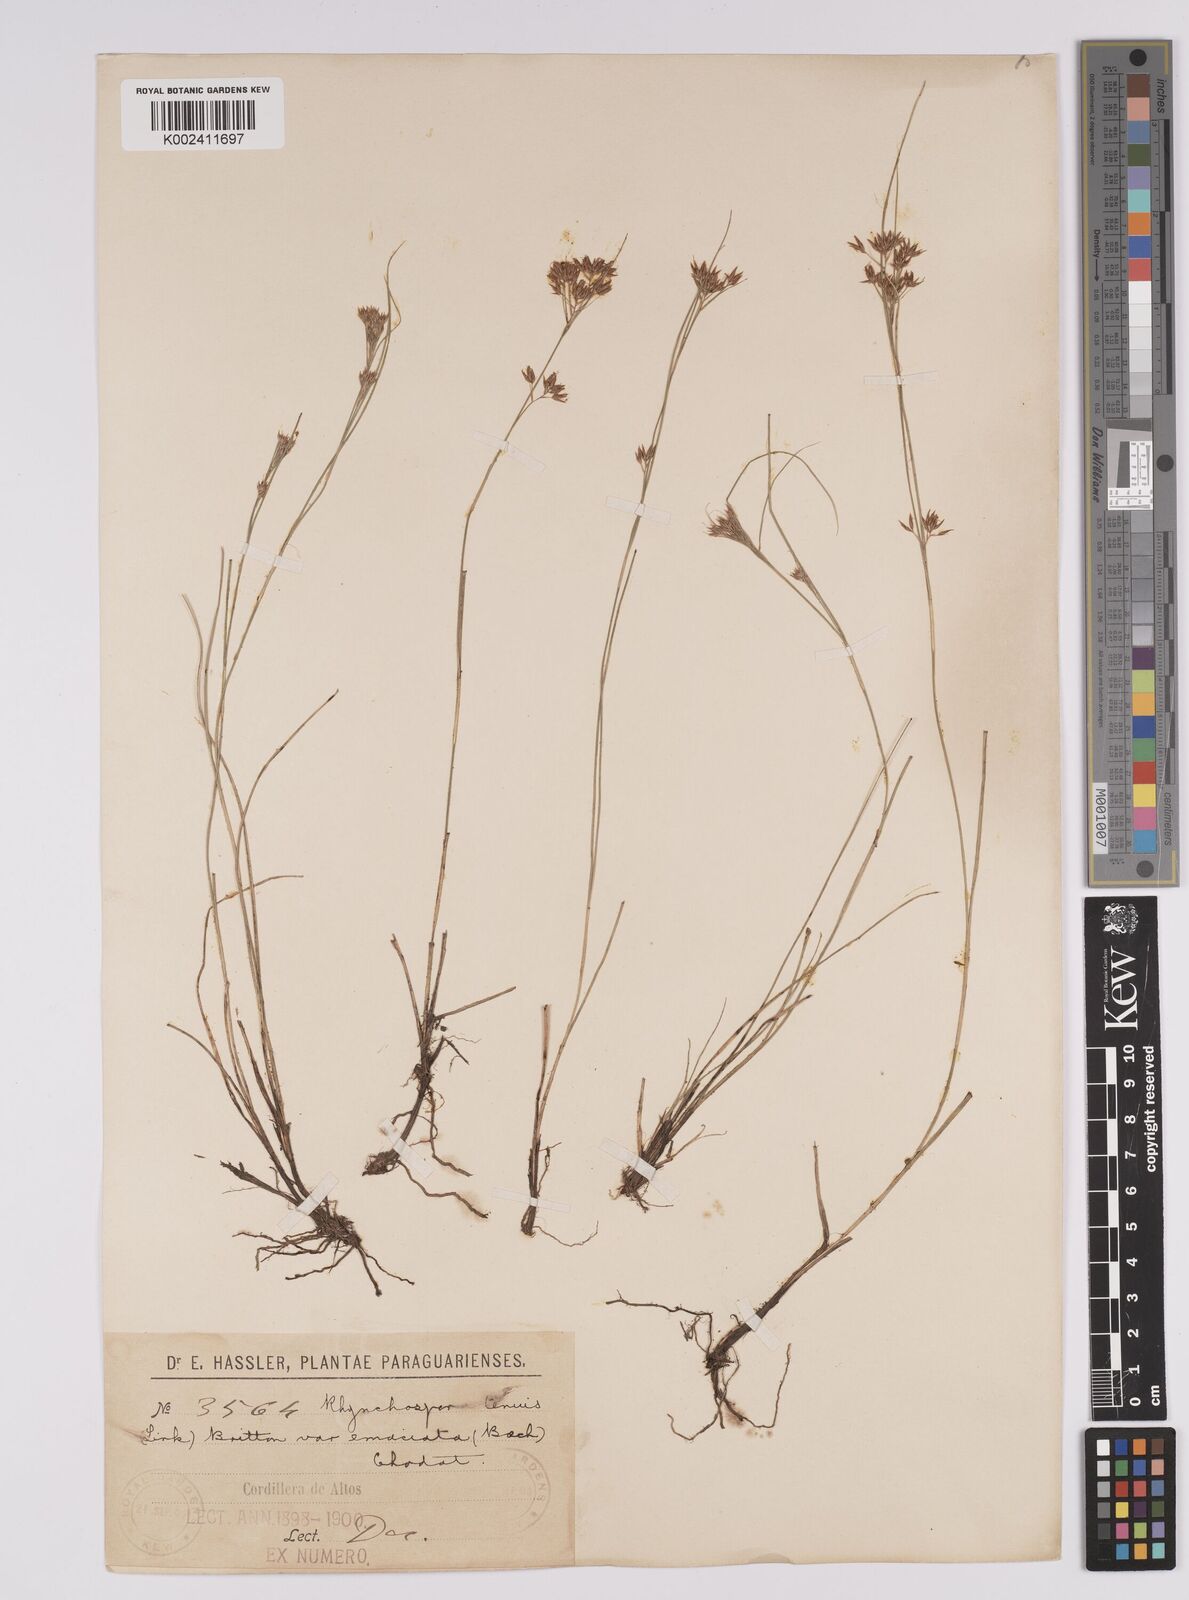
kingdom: Plantae
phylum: Tracheophyta
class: Liliopsida
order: Poales
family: Cyperaceae
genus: Rhynchospora
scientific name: Rhynchospora tenuis
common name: Quill beaksedge
